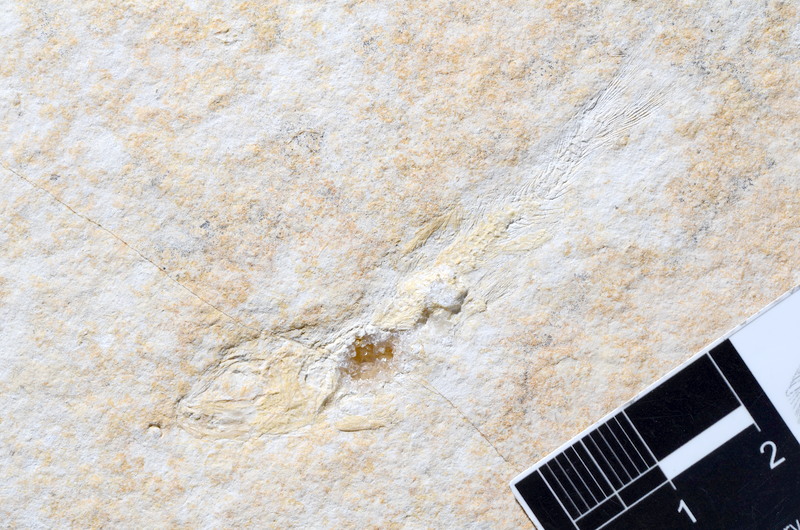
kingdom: Animalia
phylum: Chordata
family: Ascalaboidae
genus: Tharsis
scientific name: Tharsis dubius
